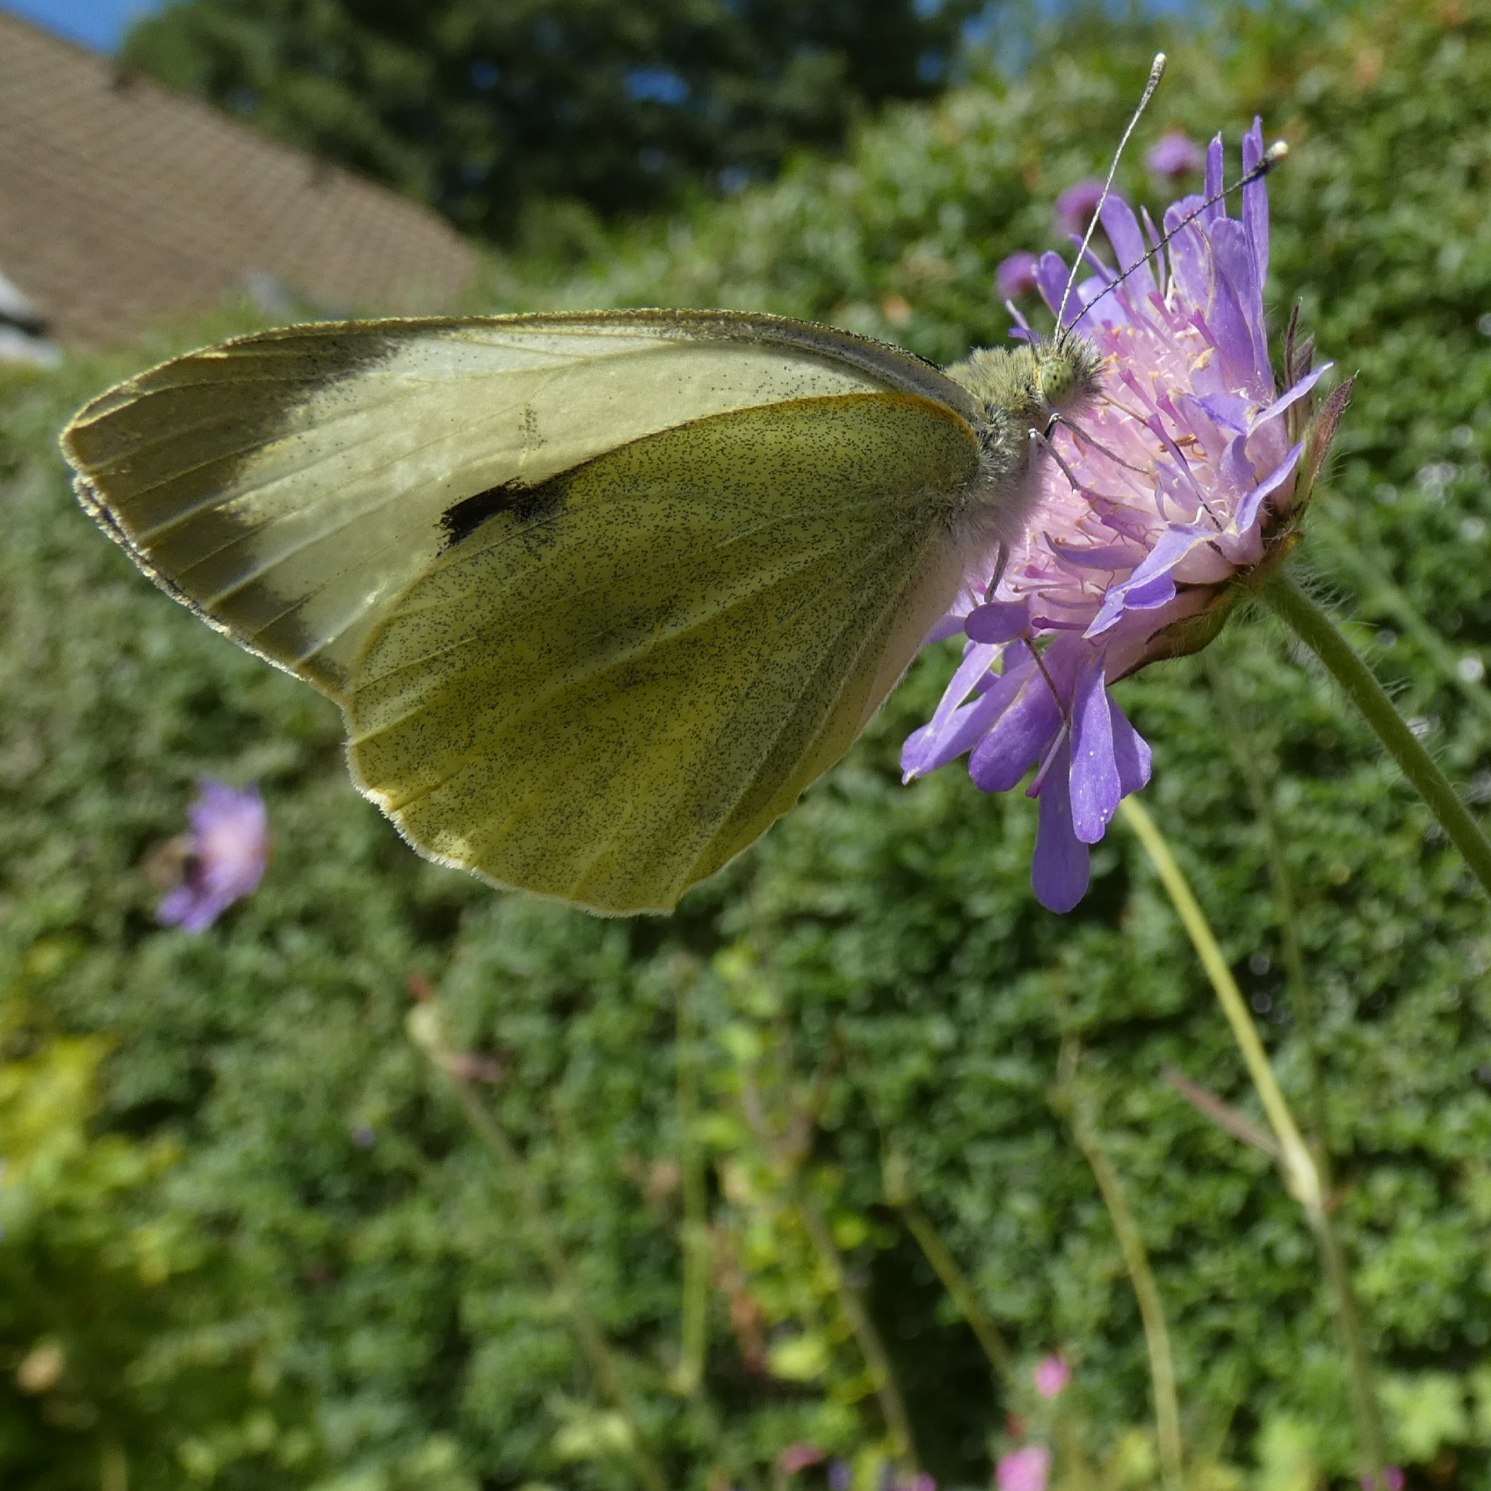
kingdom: Animalia
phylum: Arthropoda
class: Insecta
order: Lepidoptera
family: Pieridae
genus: Pieris
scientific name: Pieris brassicae
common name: Stor kålsommerfugl
